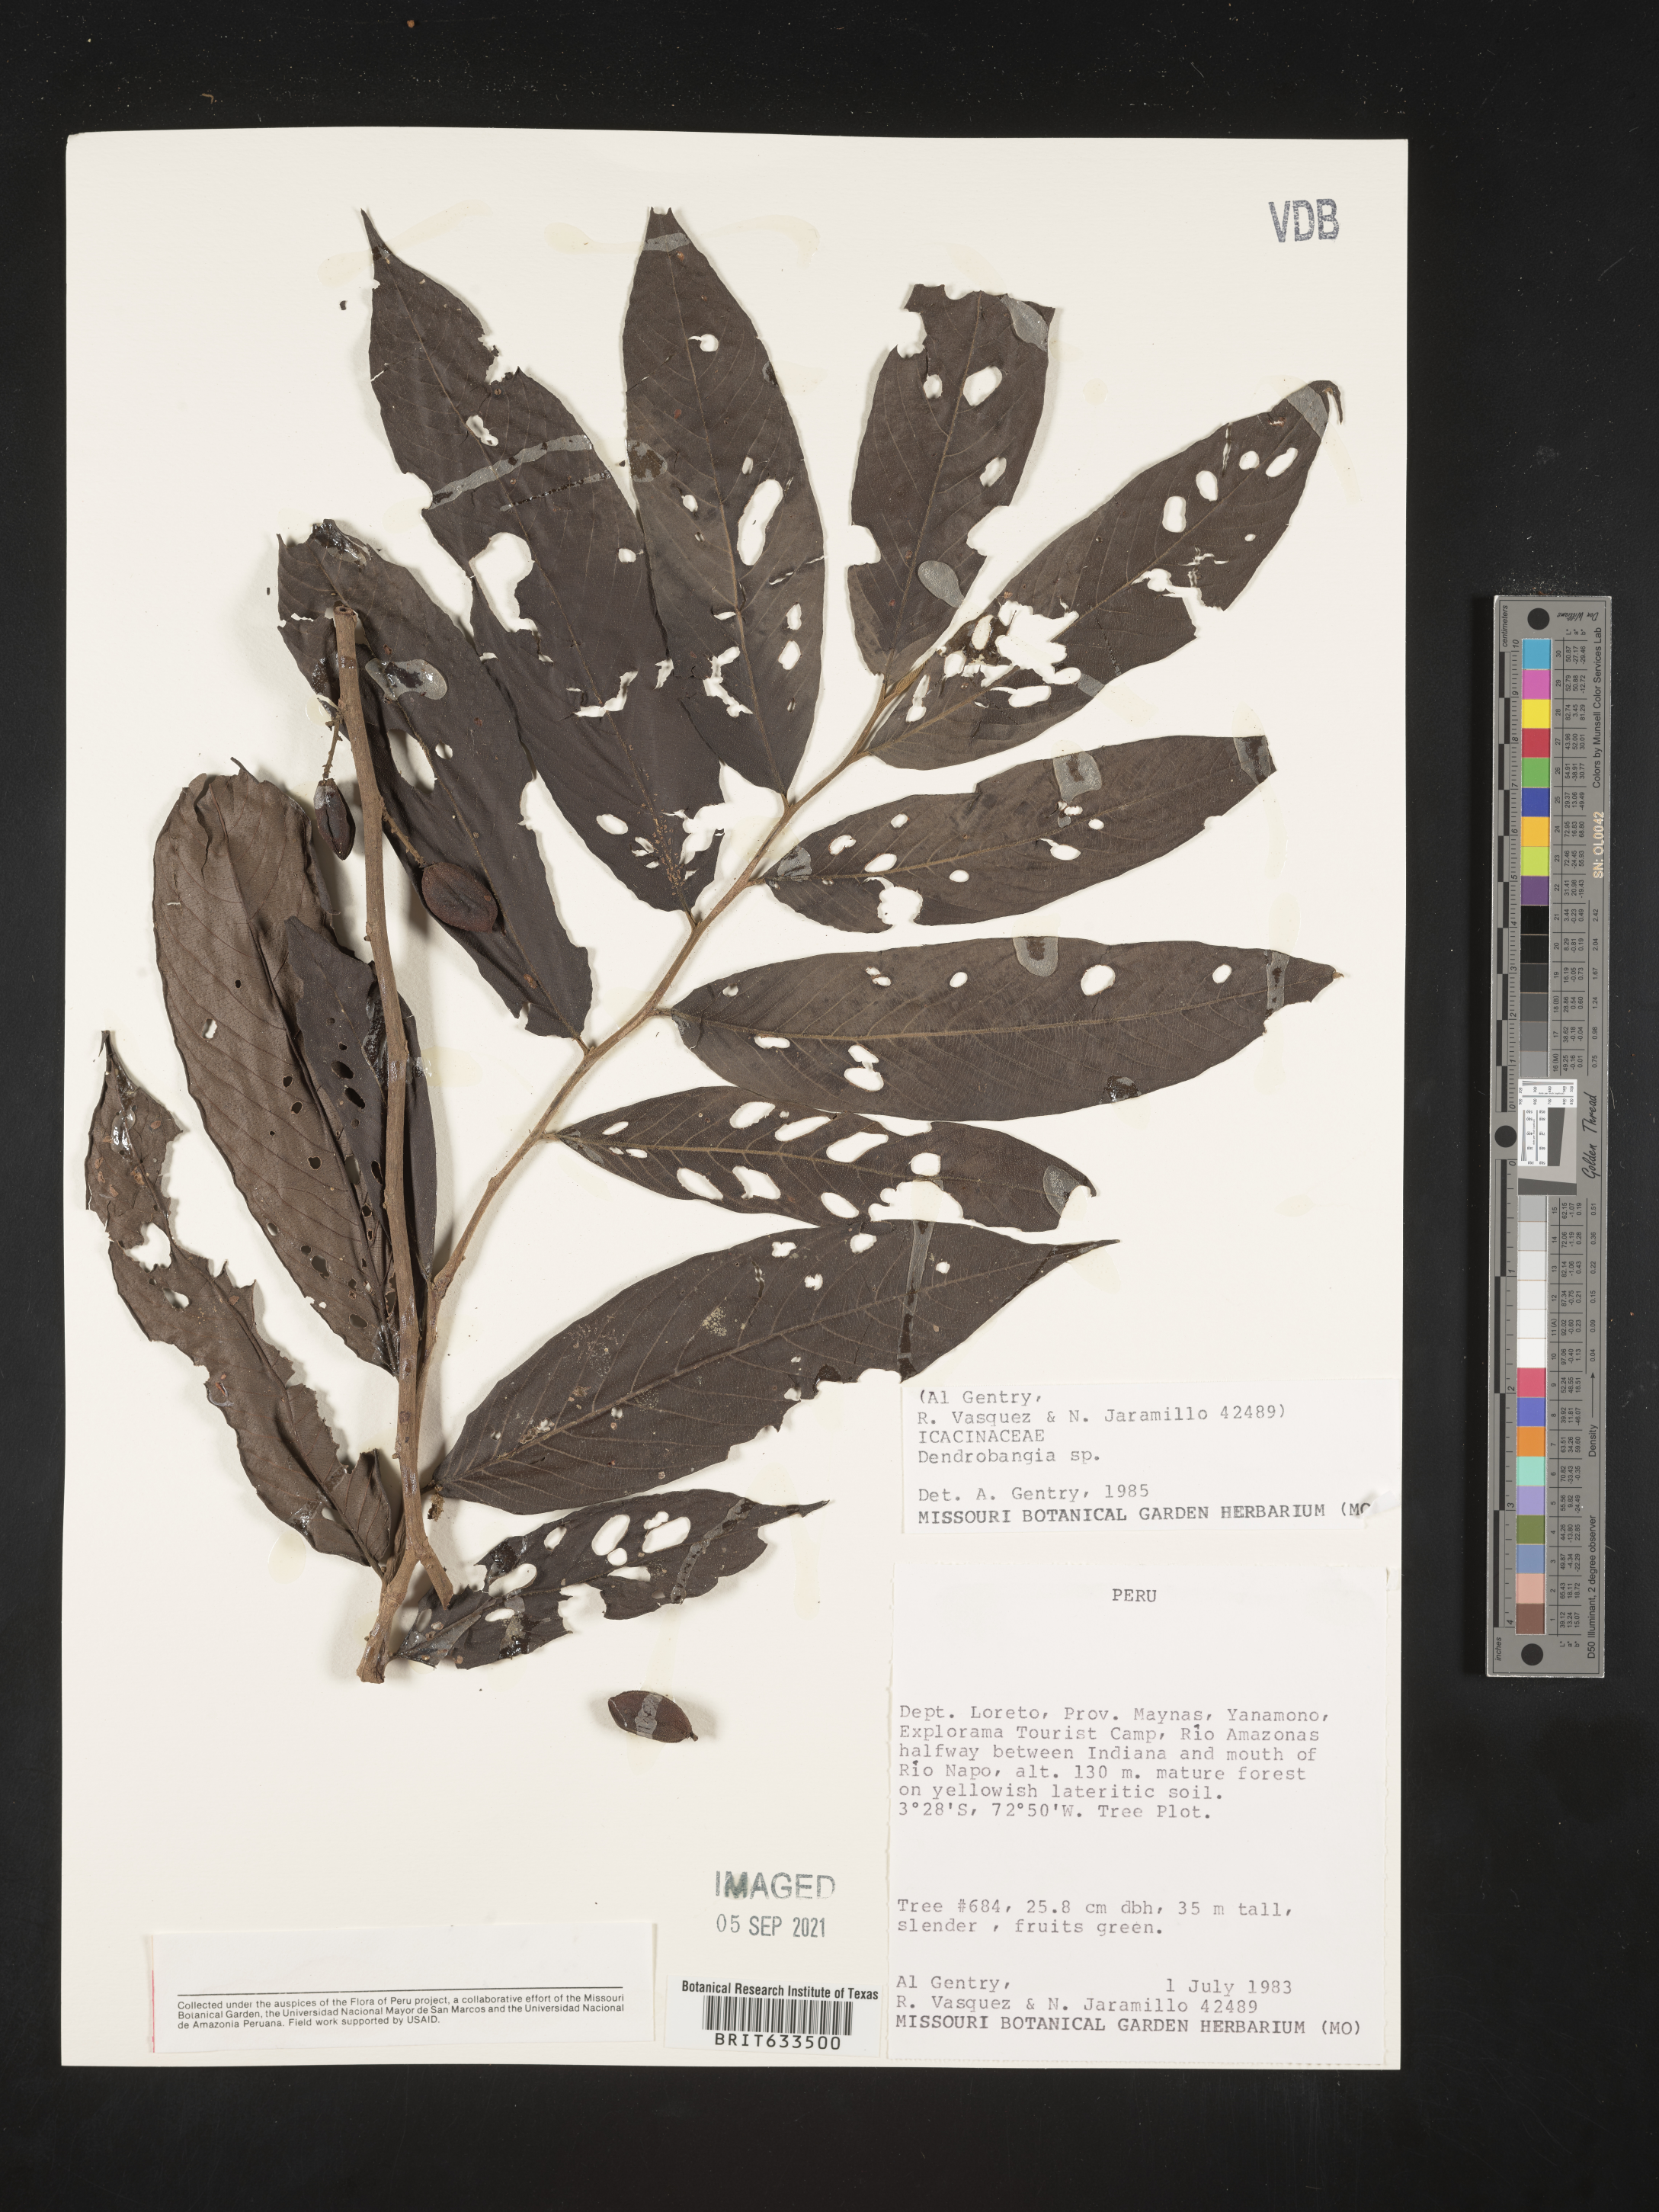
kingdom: Plantae
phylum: Tracheophyta
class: Magnoliopsida
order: Metteniusales
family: Metteniusaceae
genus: Dendrobangia
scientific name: Dendrobangia
